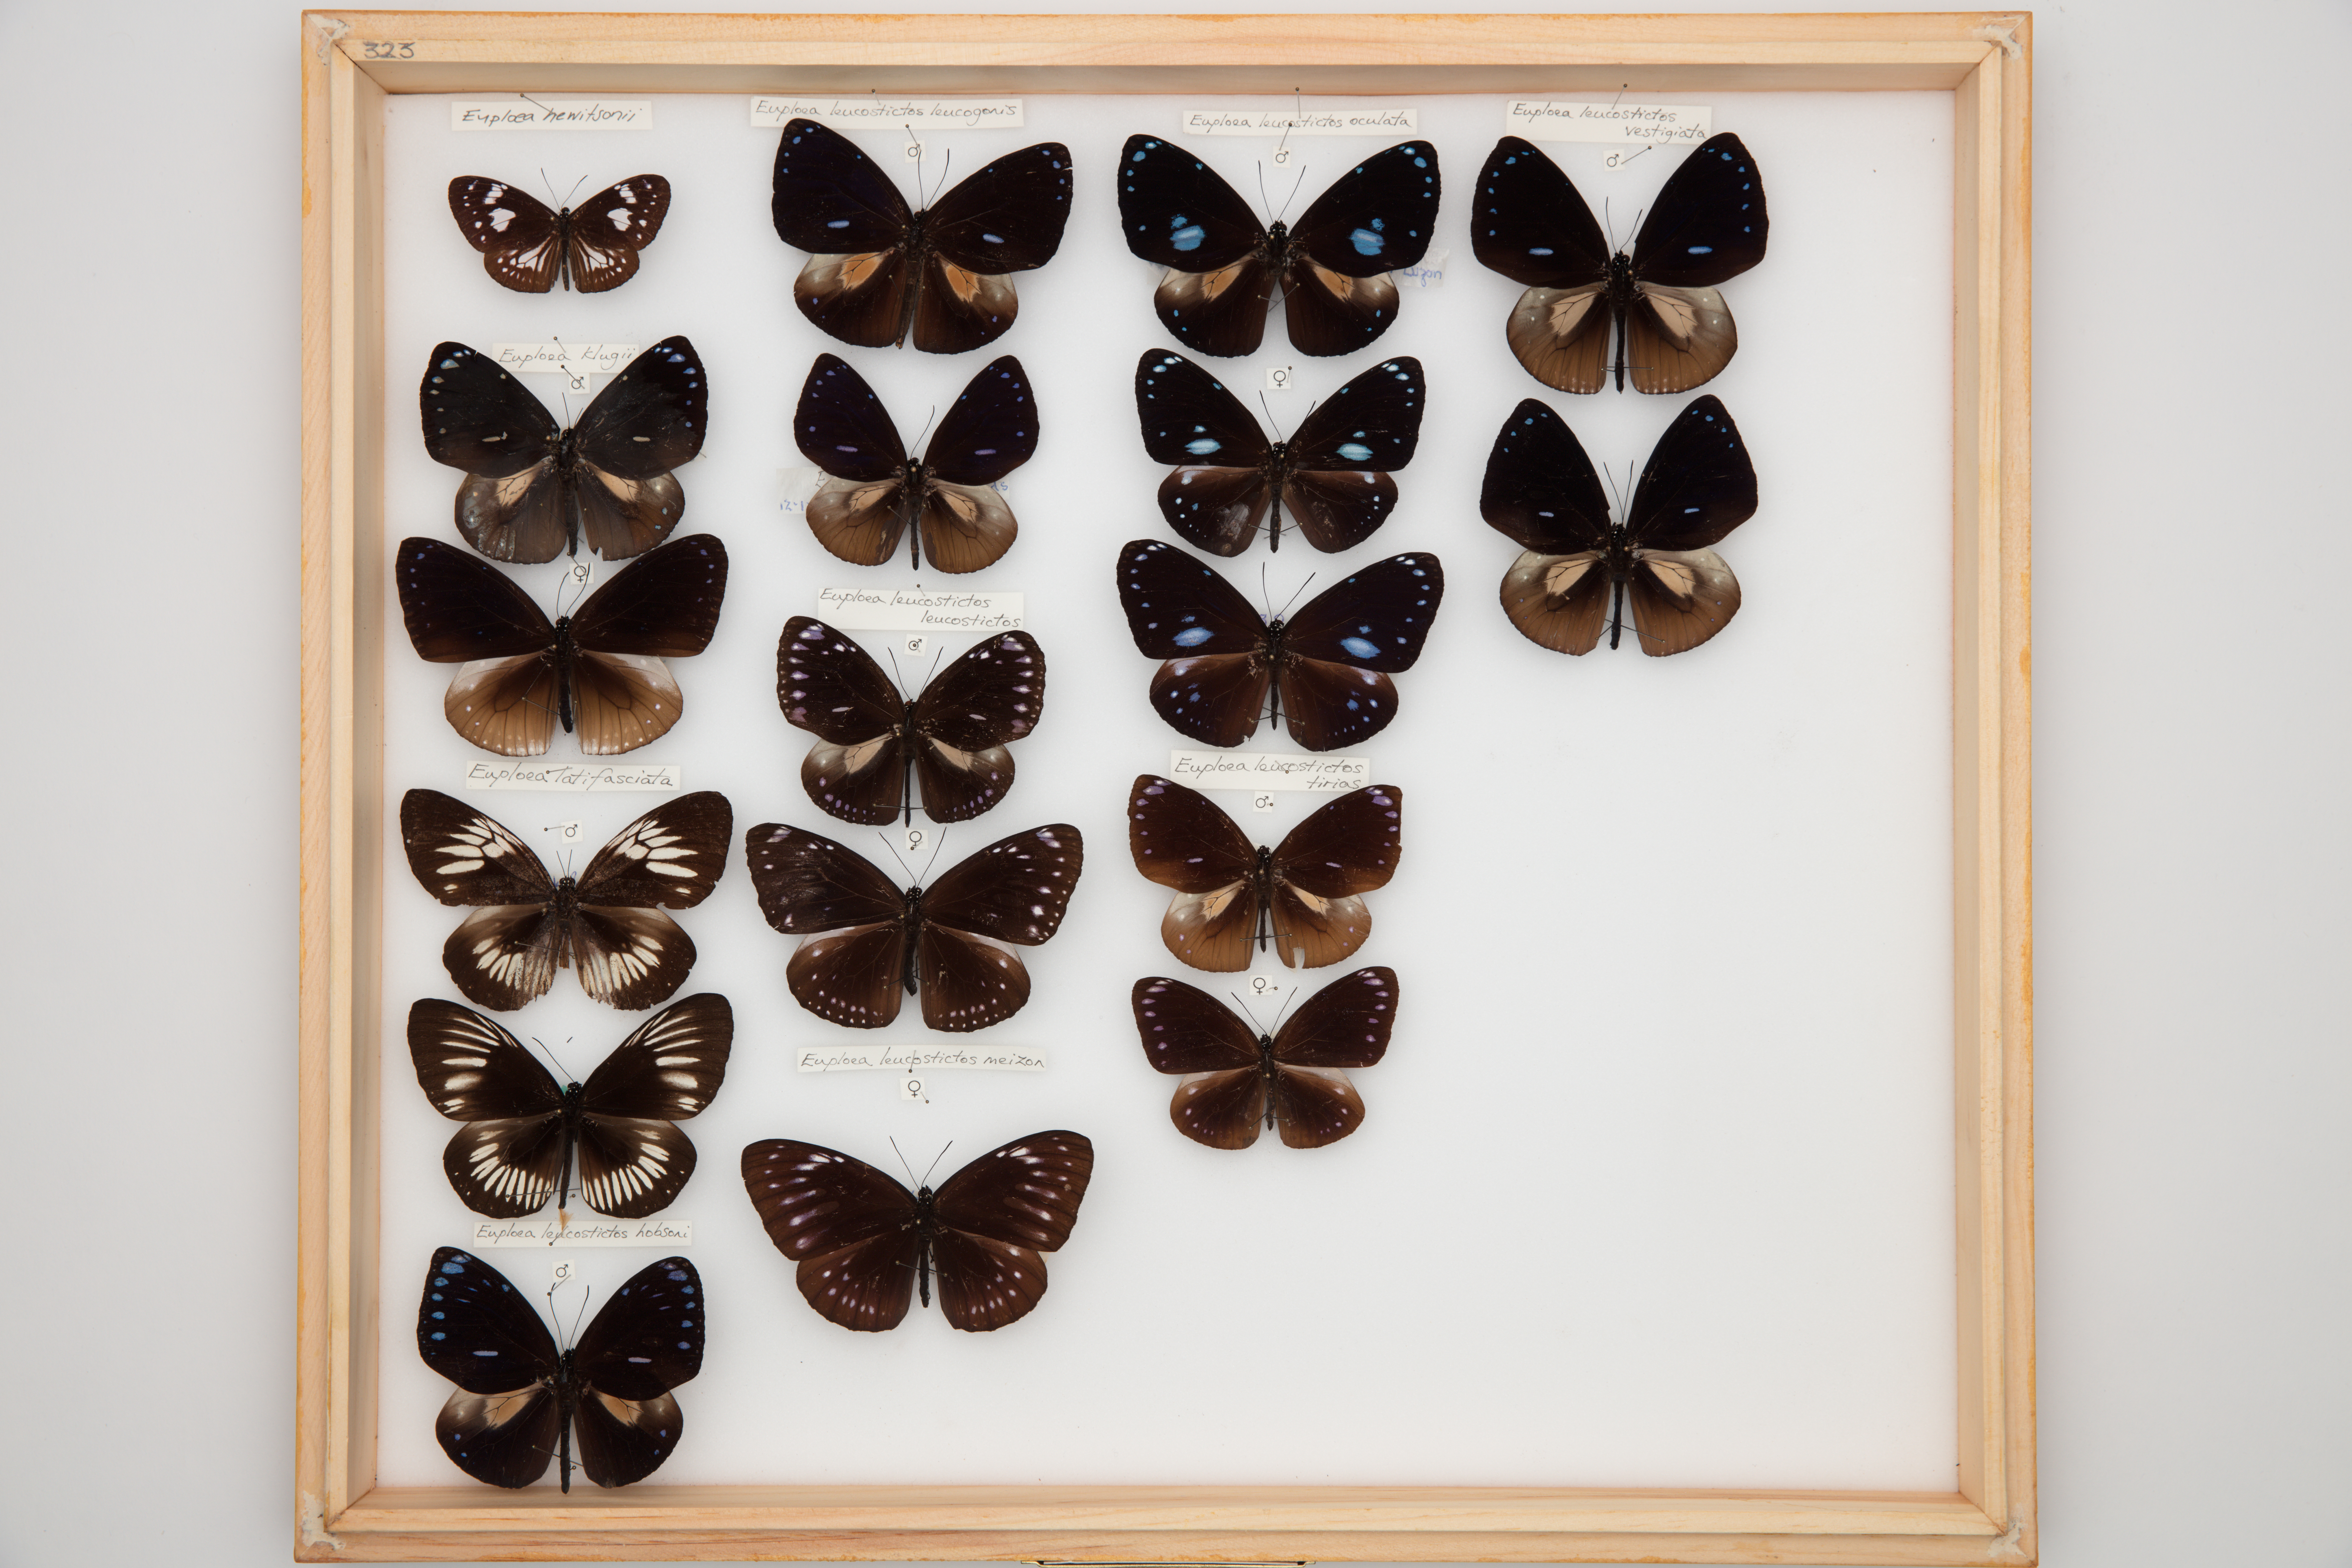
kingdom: Animalia
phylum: Arthropoda
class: Insecta
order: Lepidoptera
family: Nymphalidae
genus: Euploea
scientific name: Euploea leucostictos
